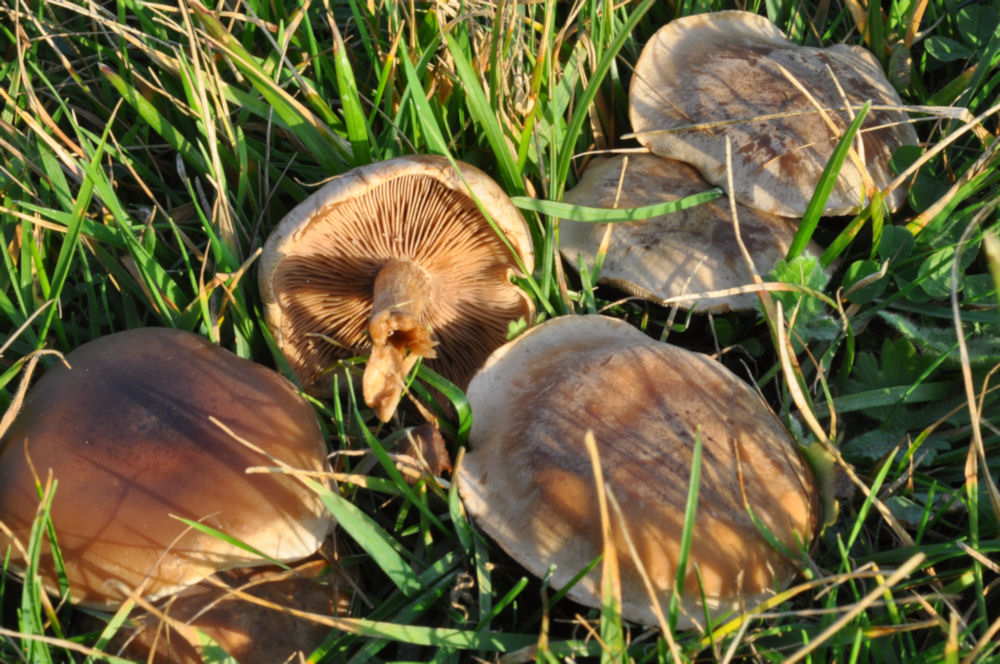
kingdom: Fungi
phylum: Basidiomycota
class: Agaricomycetes
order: Agaricales
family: Tricholomataceae
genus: Lepista
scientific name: Lepista panaeolus
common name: marmoreret hekseringshat
